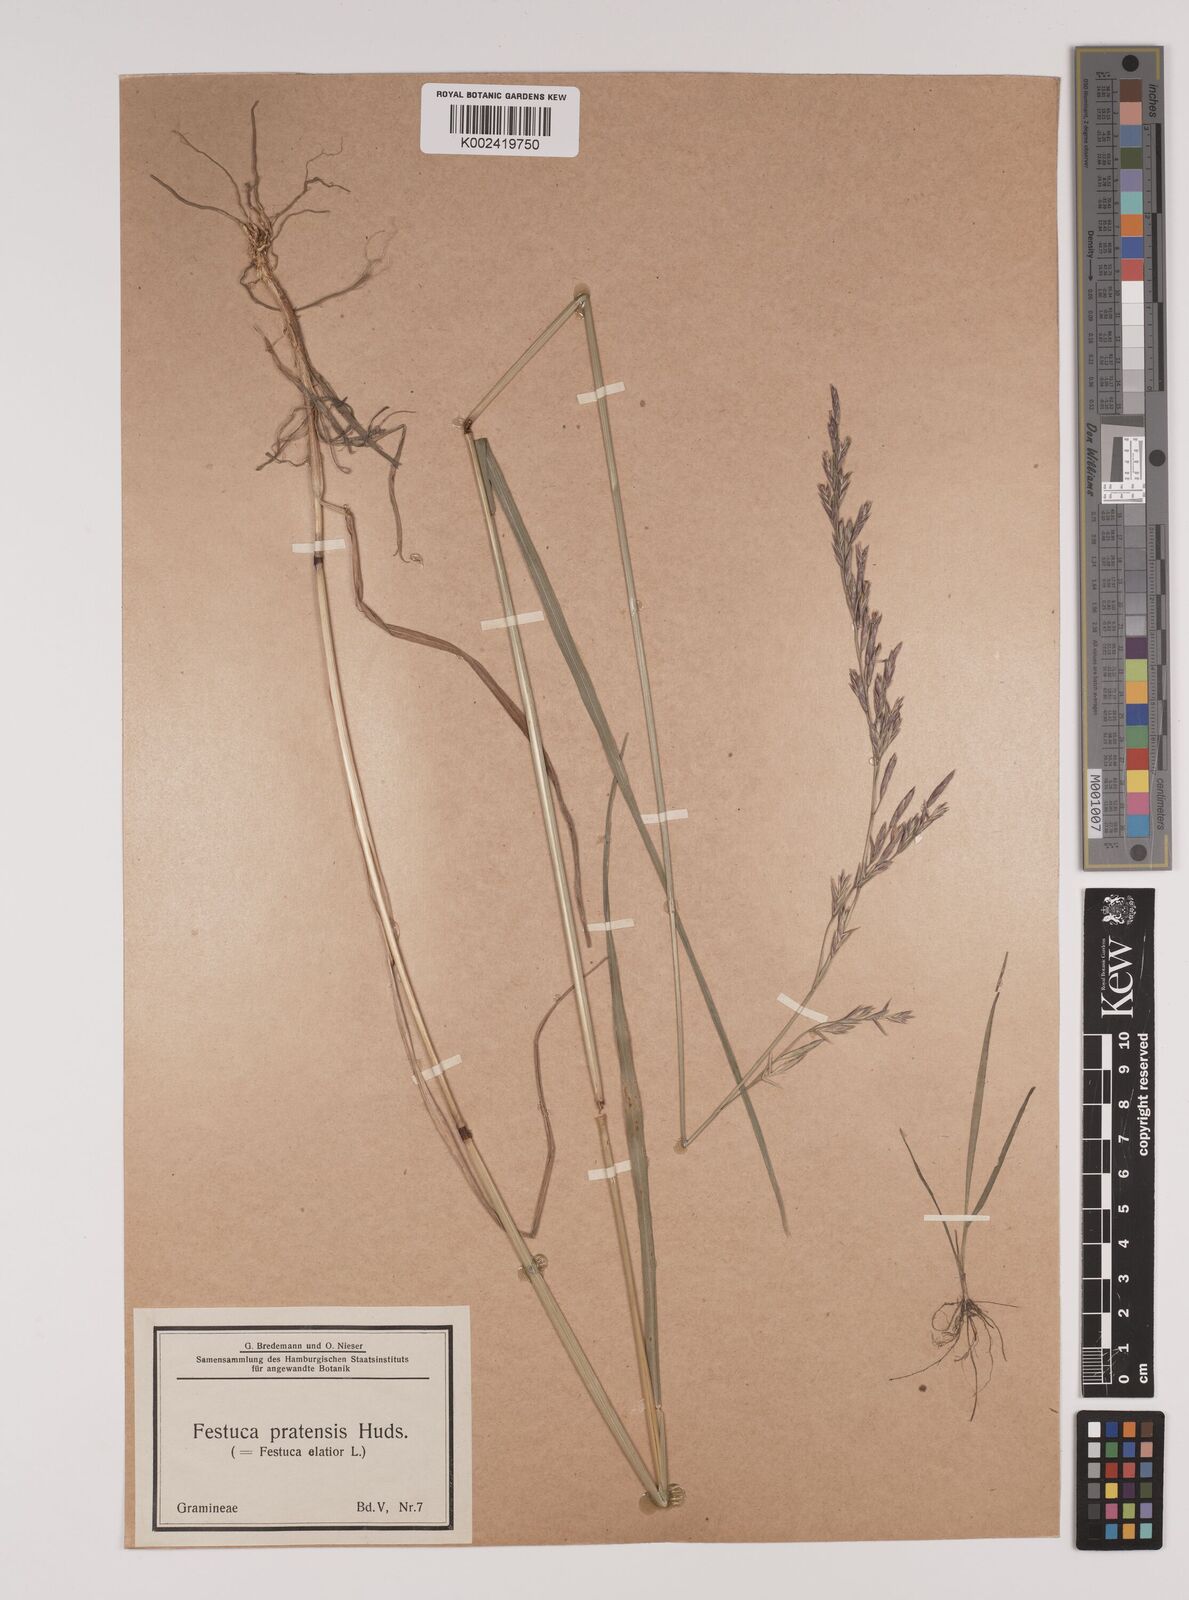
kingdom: Plantae
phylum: Tracheophyta
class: Liliopsida
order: Poales
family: Poaceae
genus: Lolium
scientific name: Lolium pratense
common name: Dover grass
